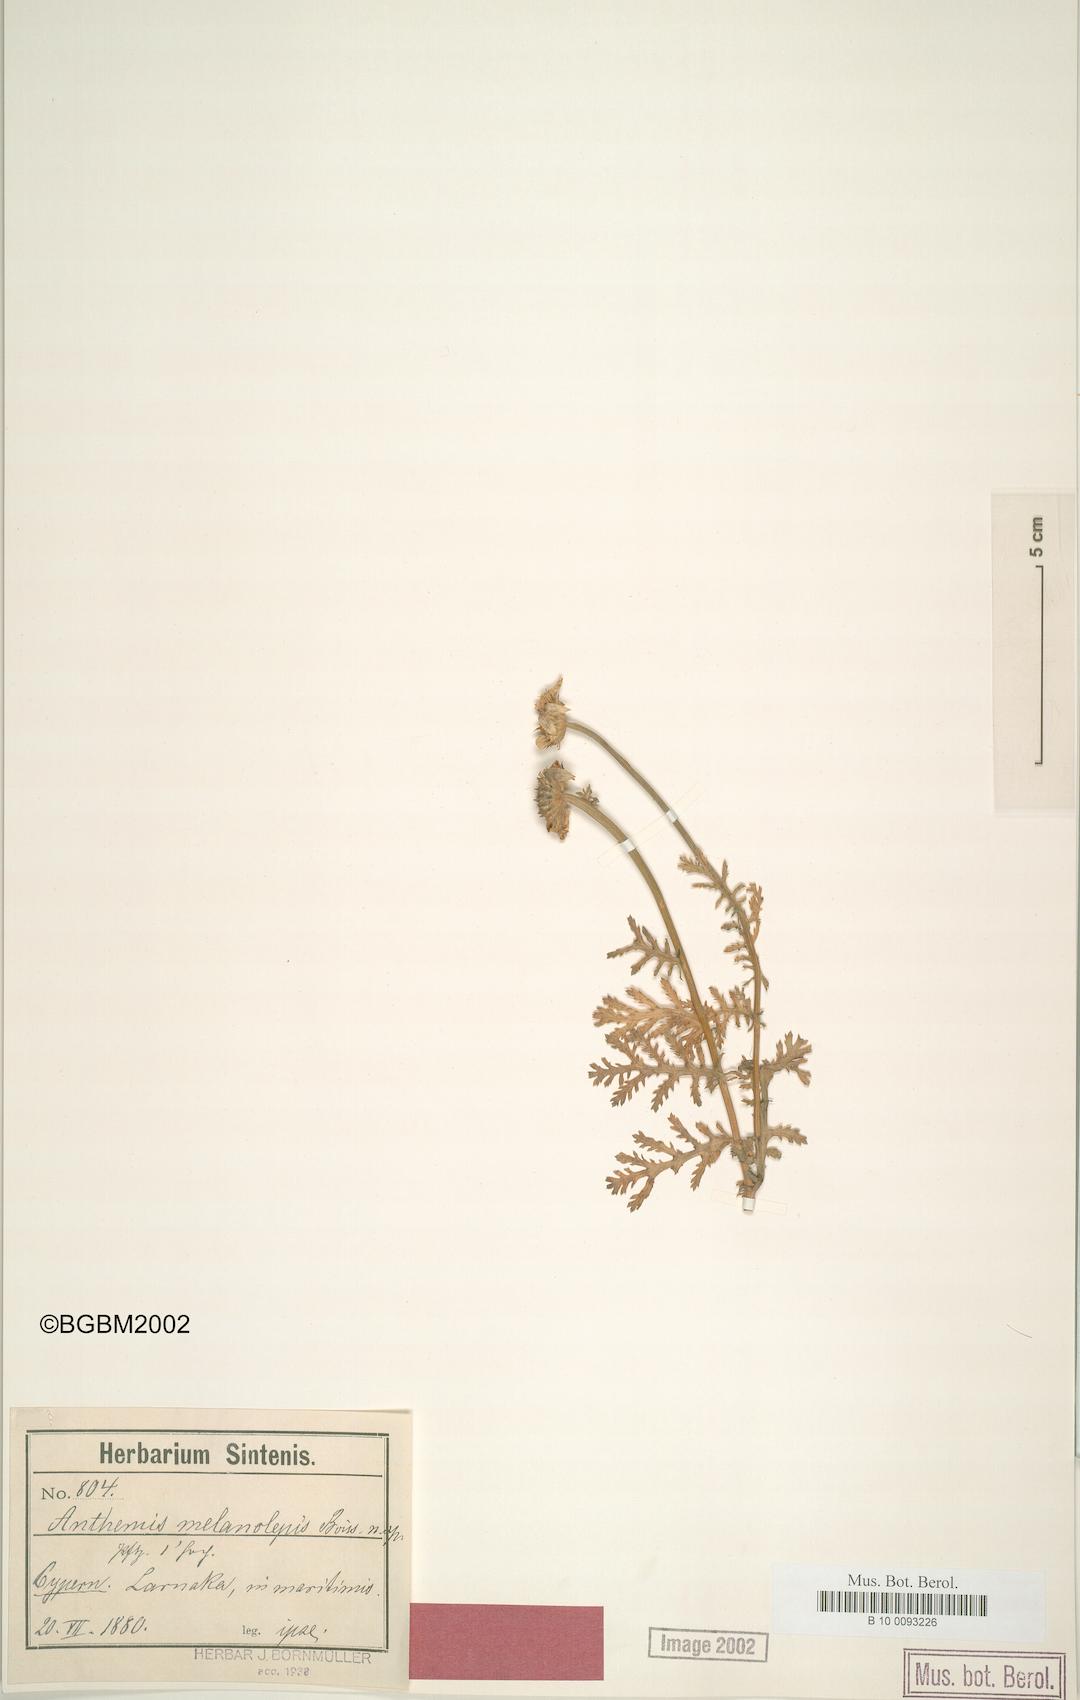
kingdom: Plantae
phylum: Tracheophyta
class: Magnoliopsida
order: Asterales
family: Asteraceae
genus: Cota
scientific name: Cota palaestina
